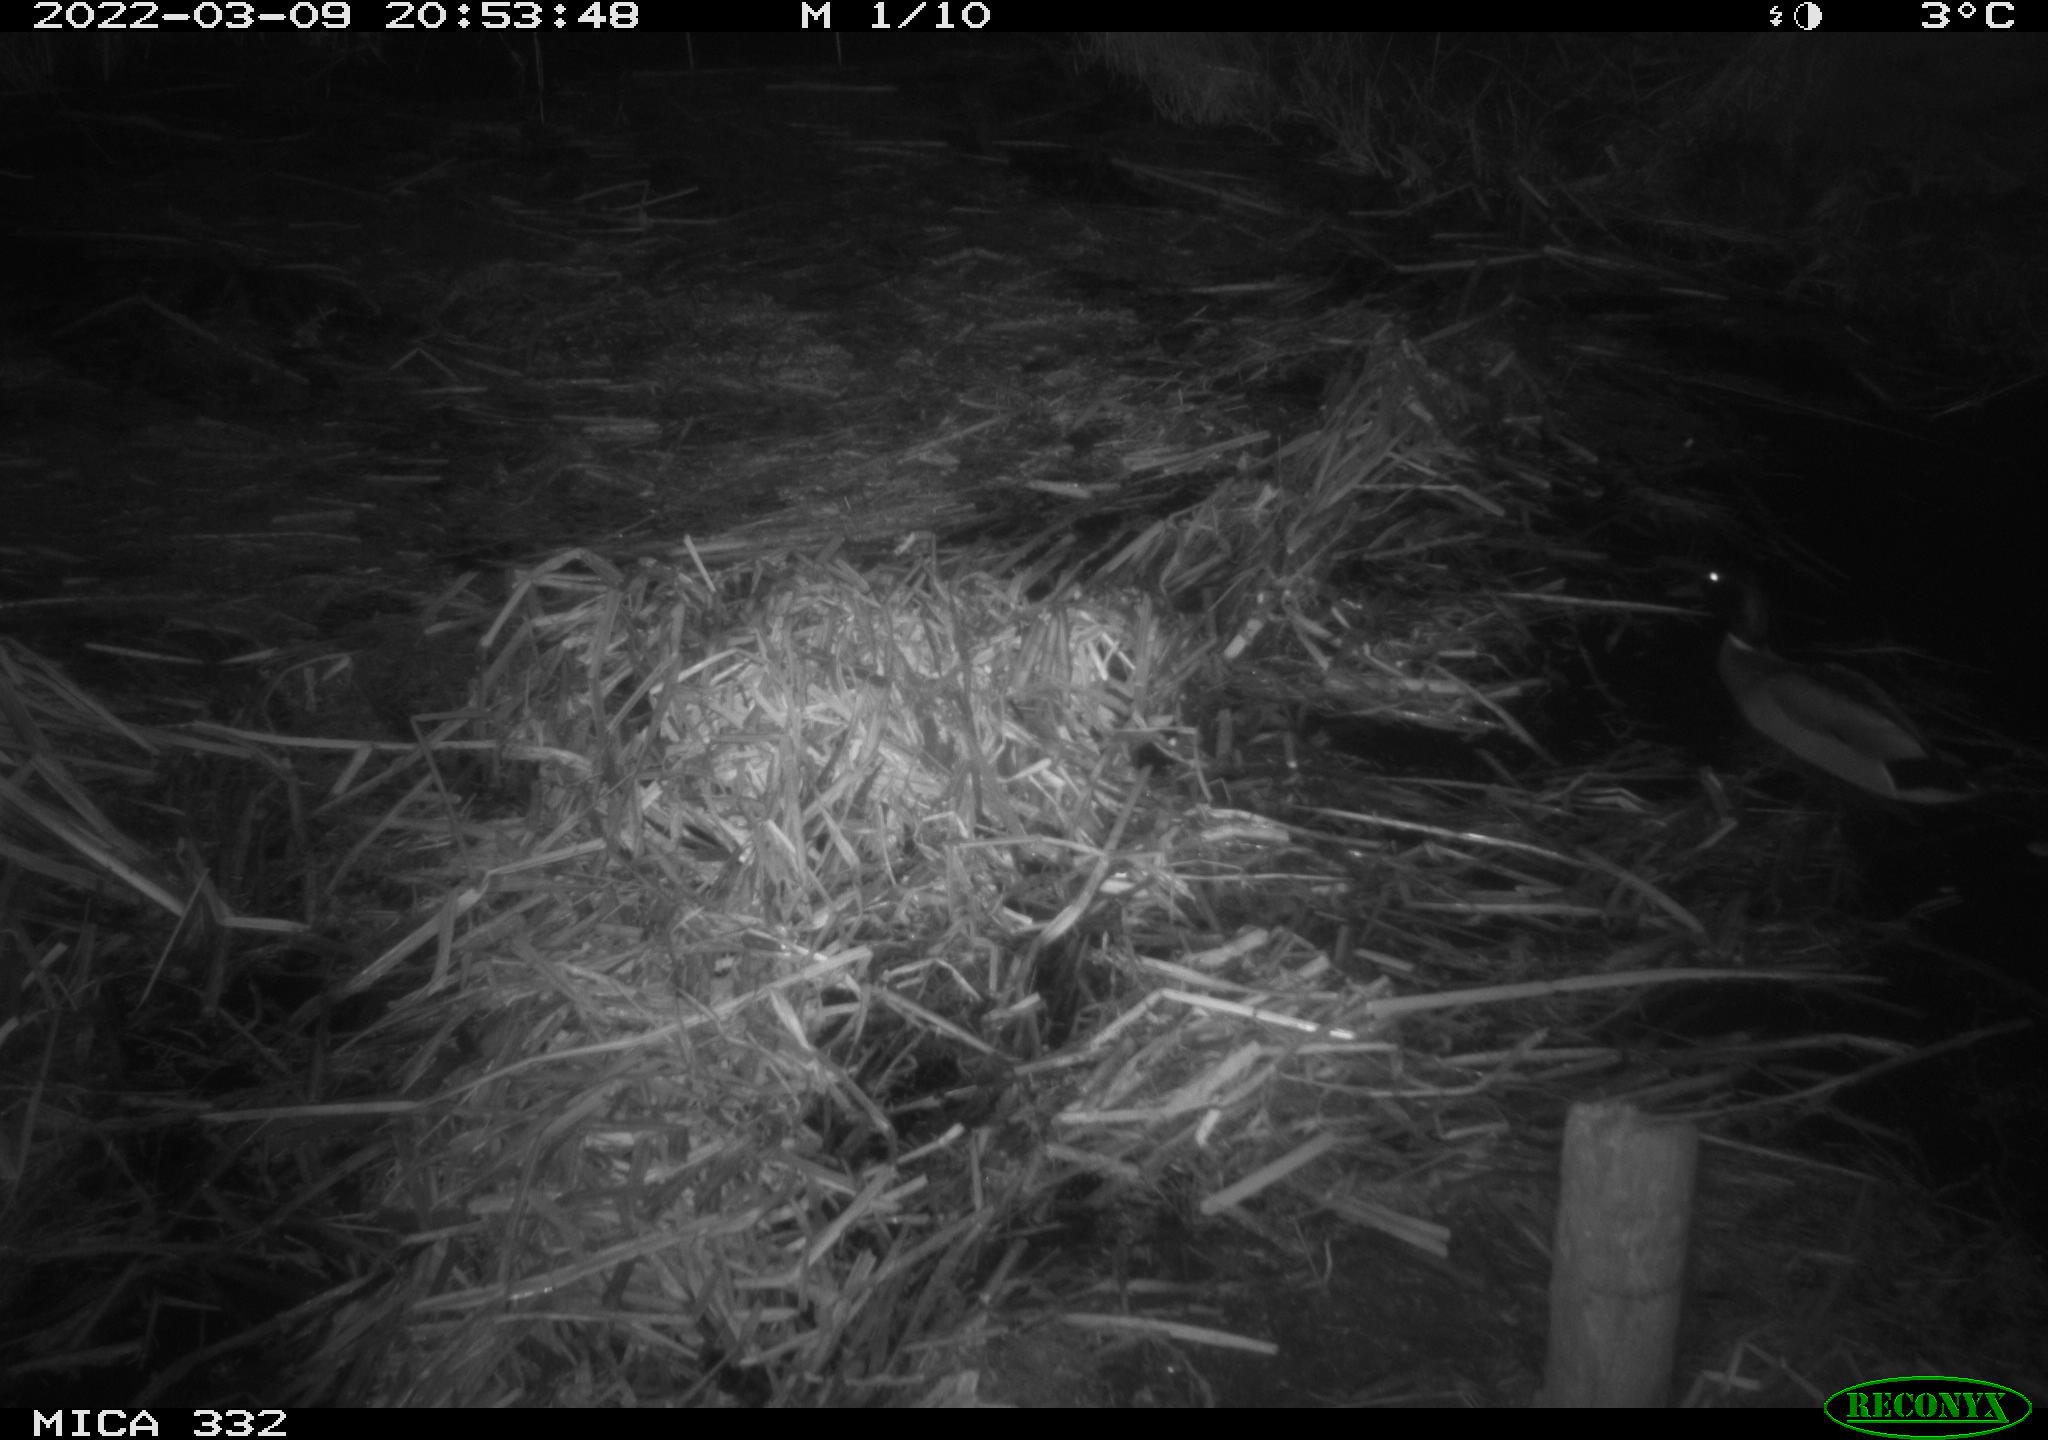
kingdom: Animalia
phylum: Chordata
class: Aves
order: Anseriformes
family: Anatidae
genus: Anas
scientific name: Anas platyrhynchos
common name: Mallard
